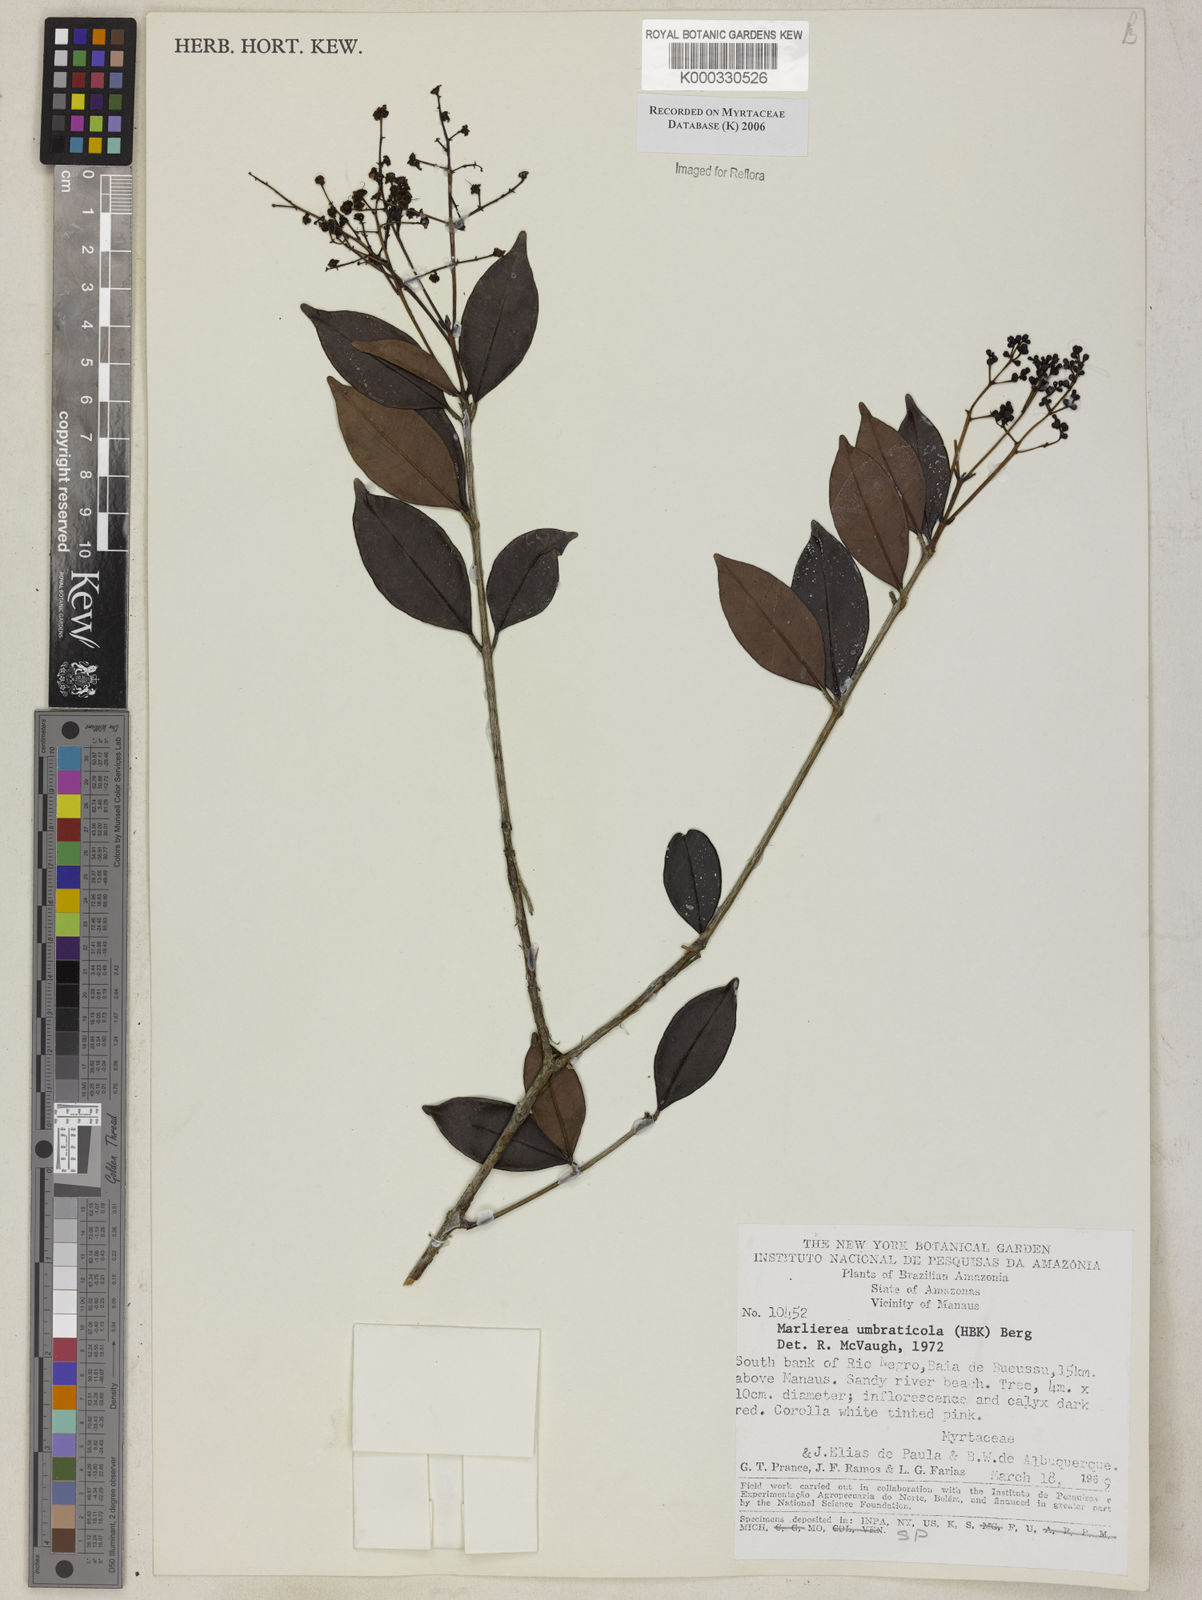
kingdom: Plantae
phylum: Tracheophyta
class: Magnoliopsida
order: Myrtales
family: Myrtaceae
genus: Myrcia
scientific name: Myrcia umbraticola
